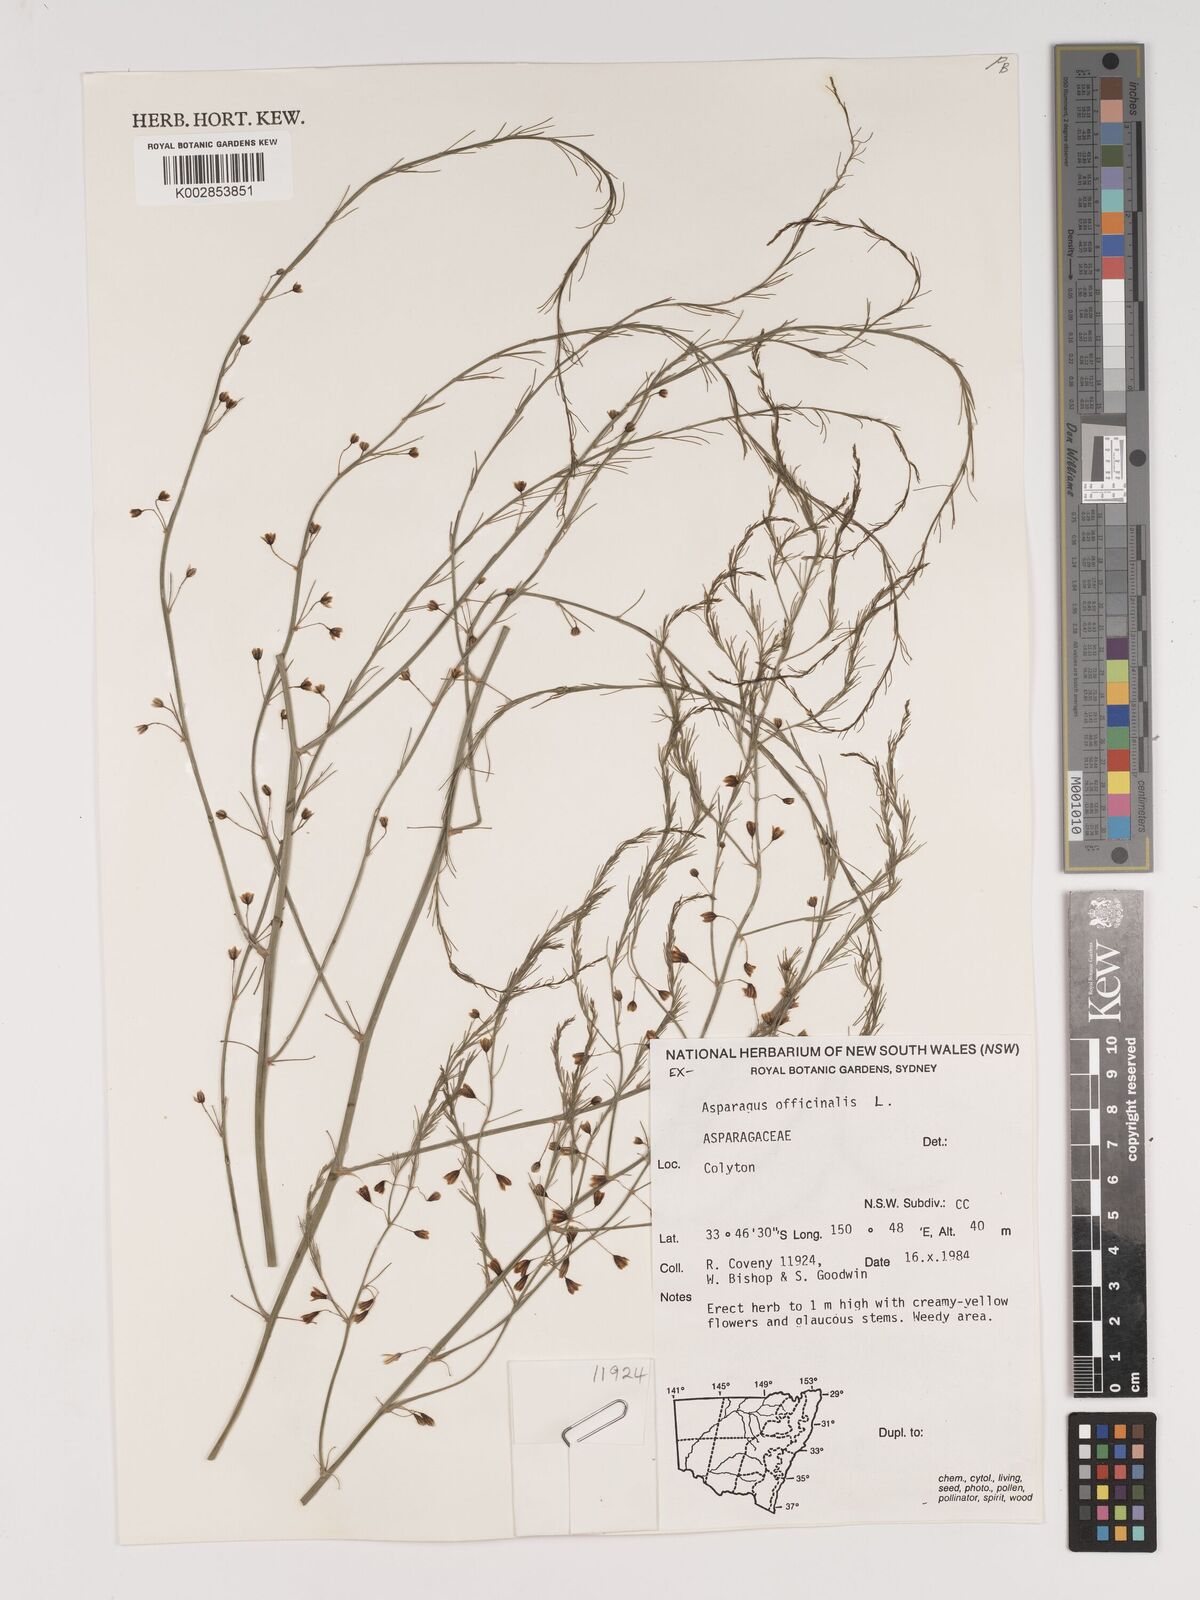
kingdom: Plantae
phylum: Tracheophyta
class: Liliopsida
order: Asparagales
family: Asparagaceae
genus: Asparagus
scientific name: Asparagus officinalis
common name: Garden asparagus
